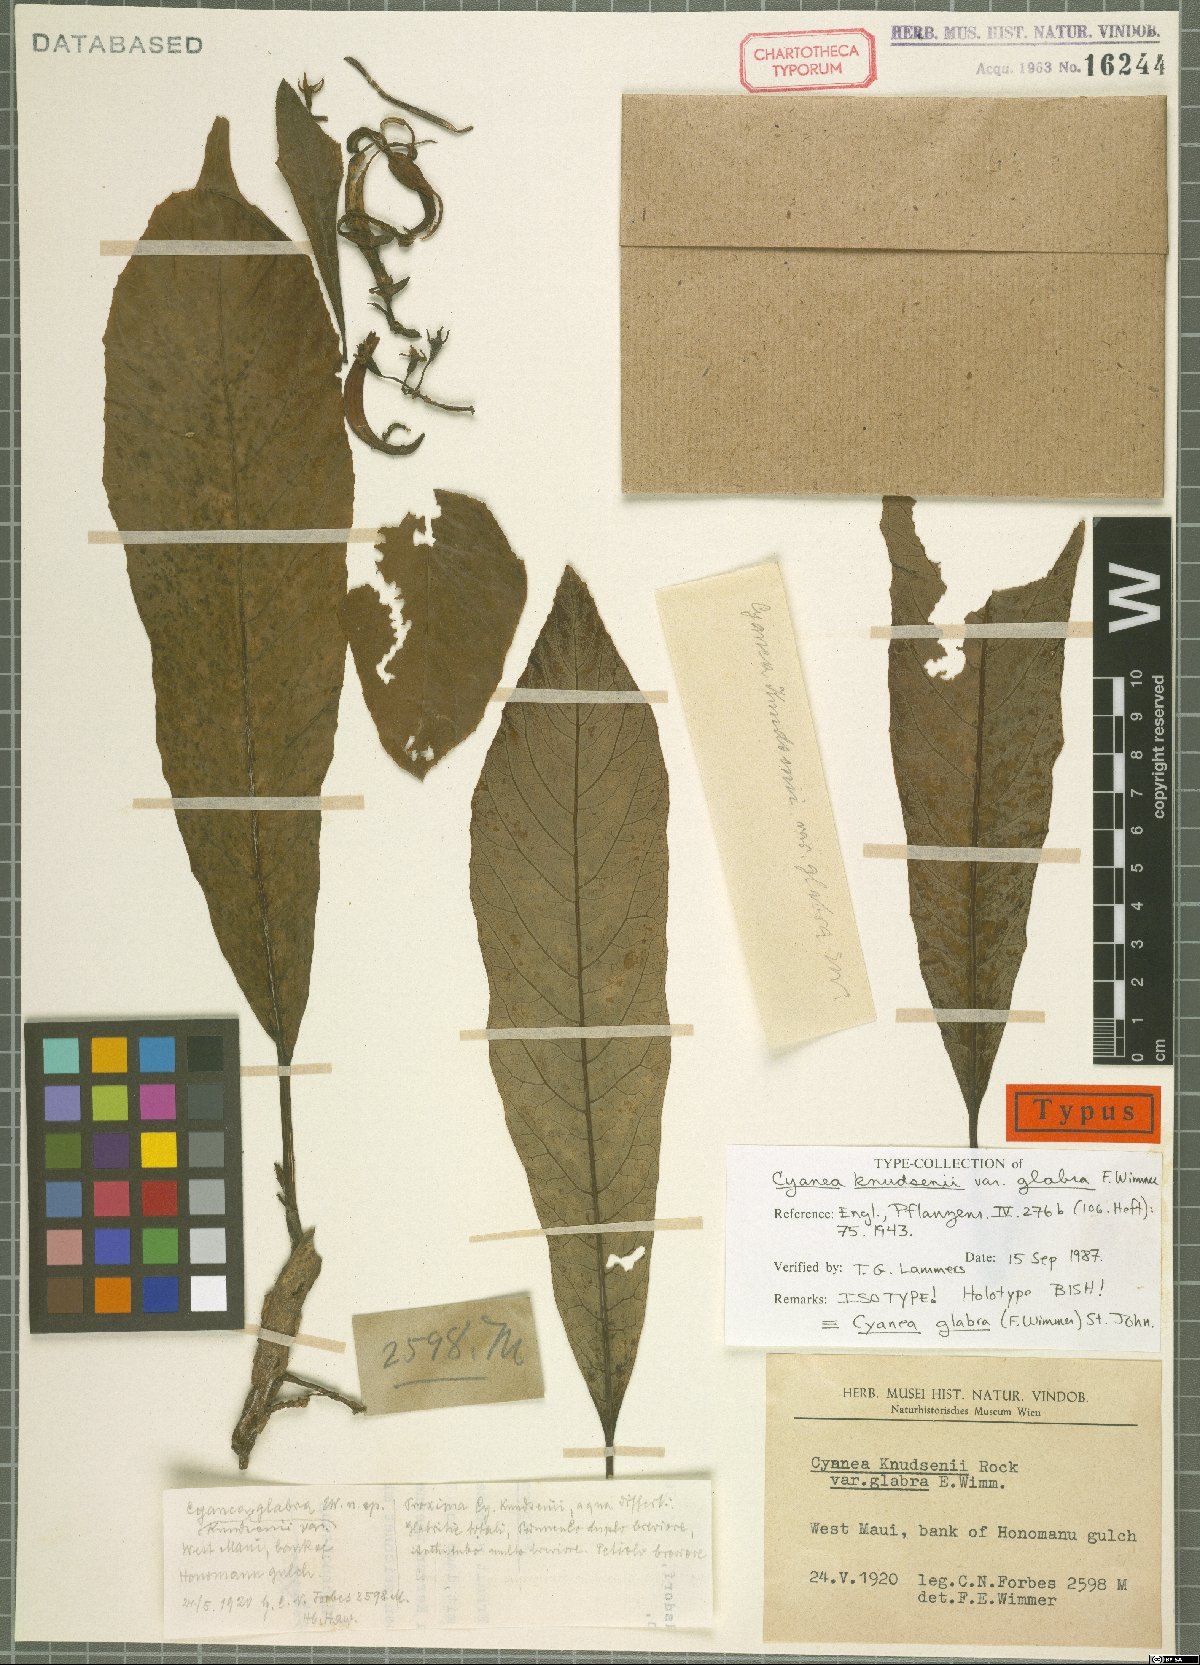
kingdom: Plantae
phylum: Tracheophyta
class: Magnoliopsida
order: Asterales
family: Campanulaceae
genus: Cyanea
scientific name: Cyanea glabra
